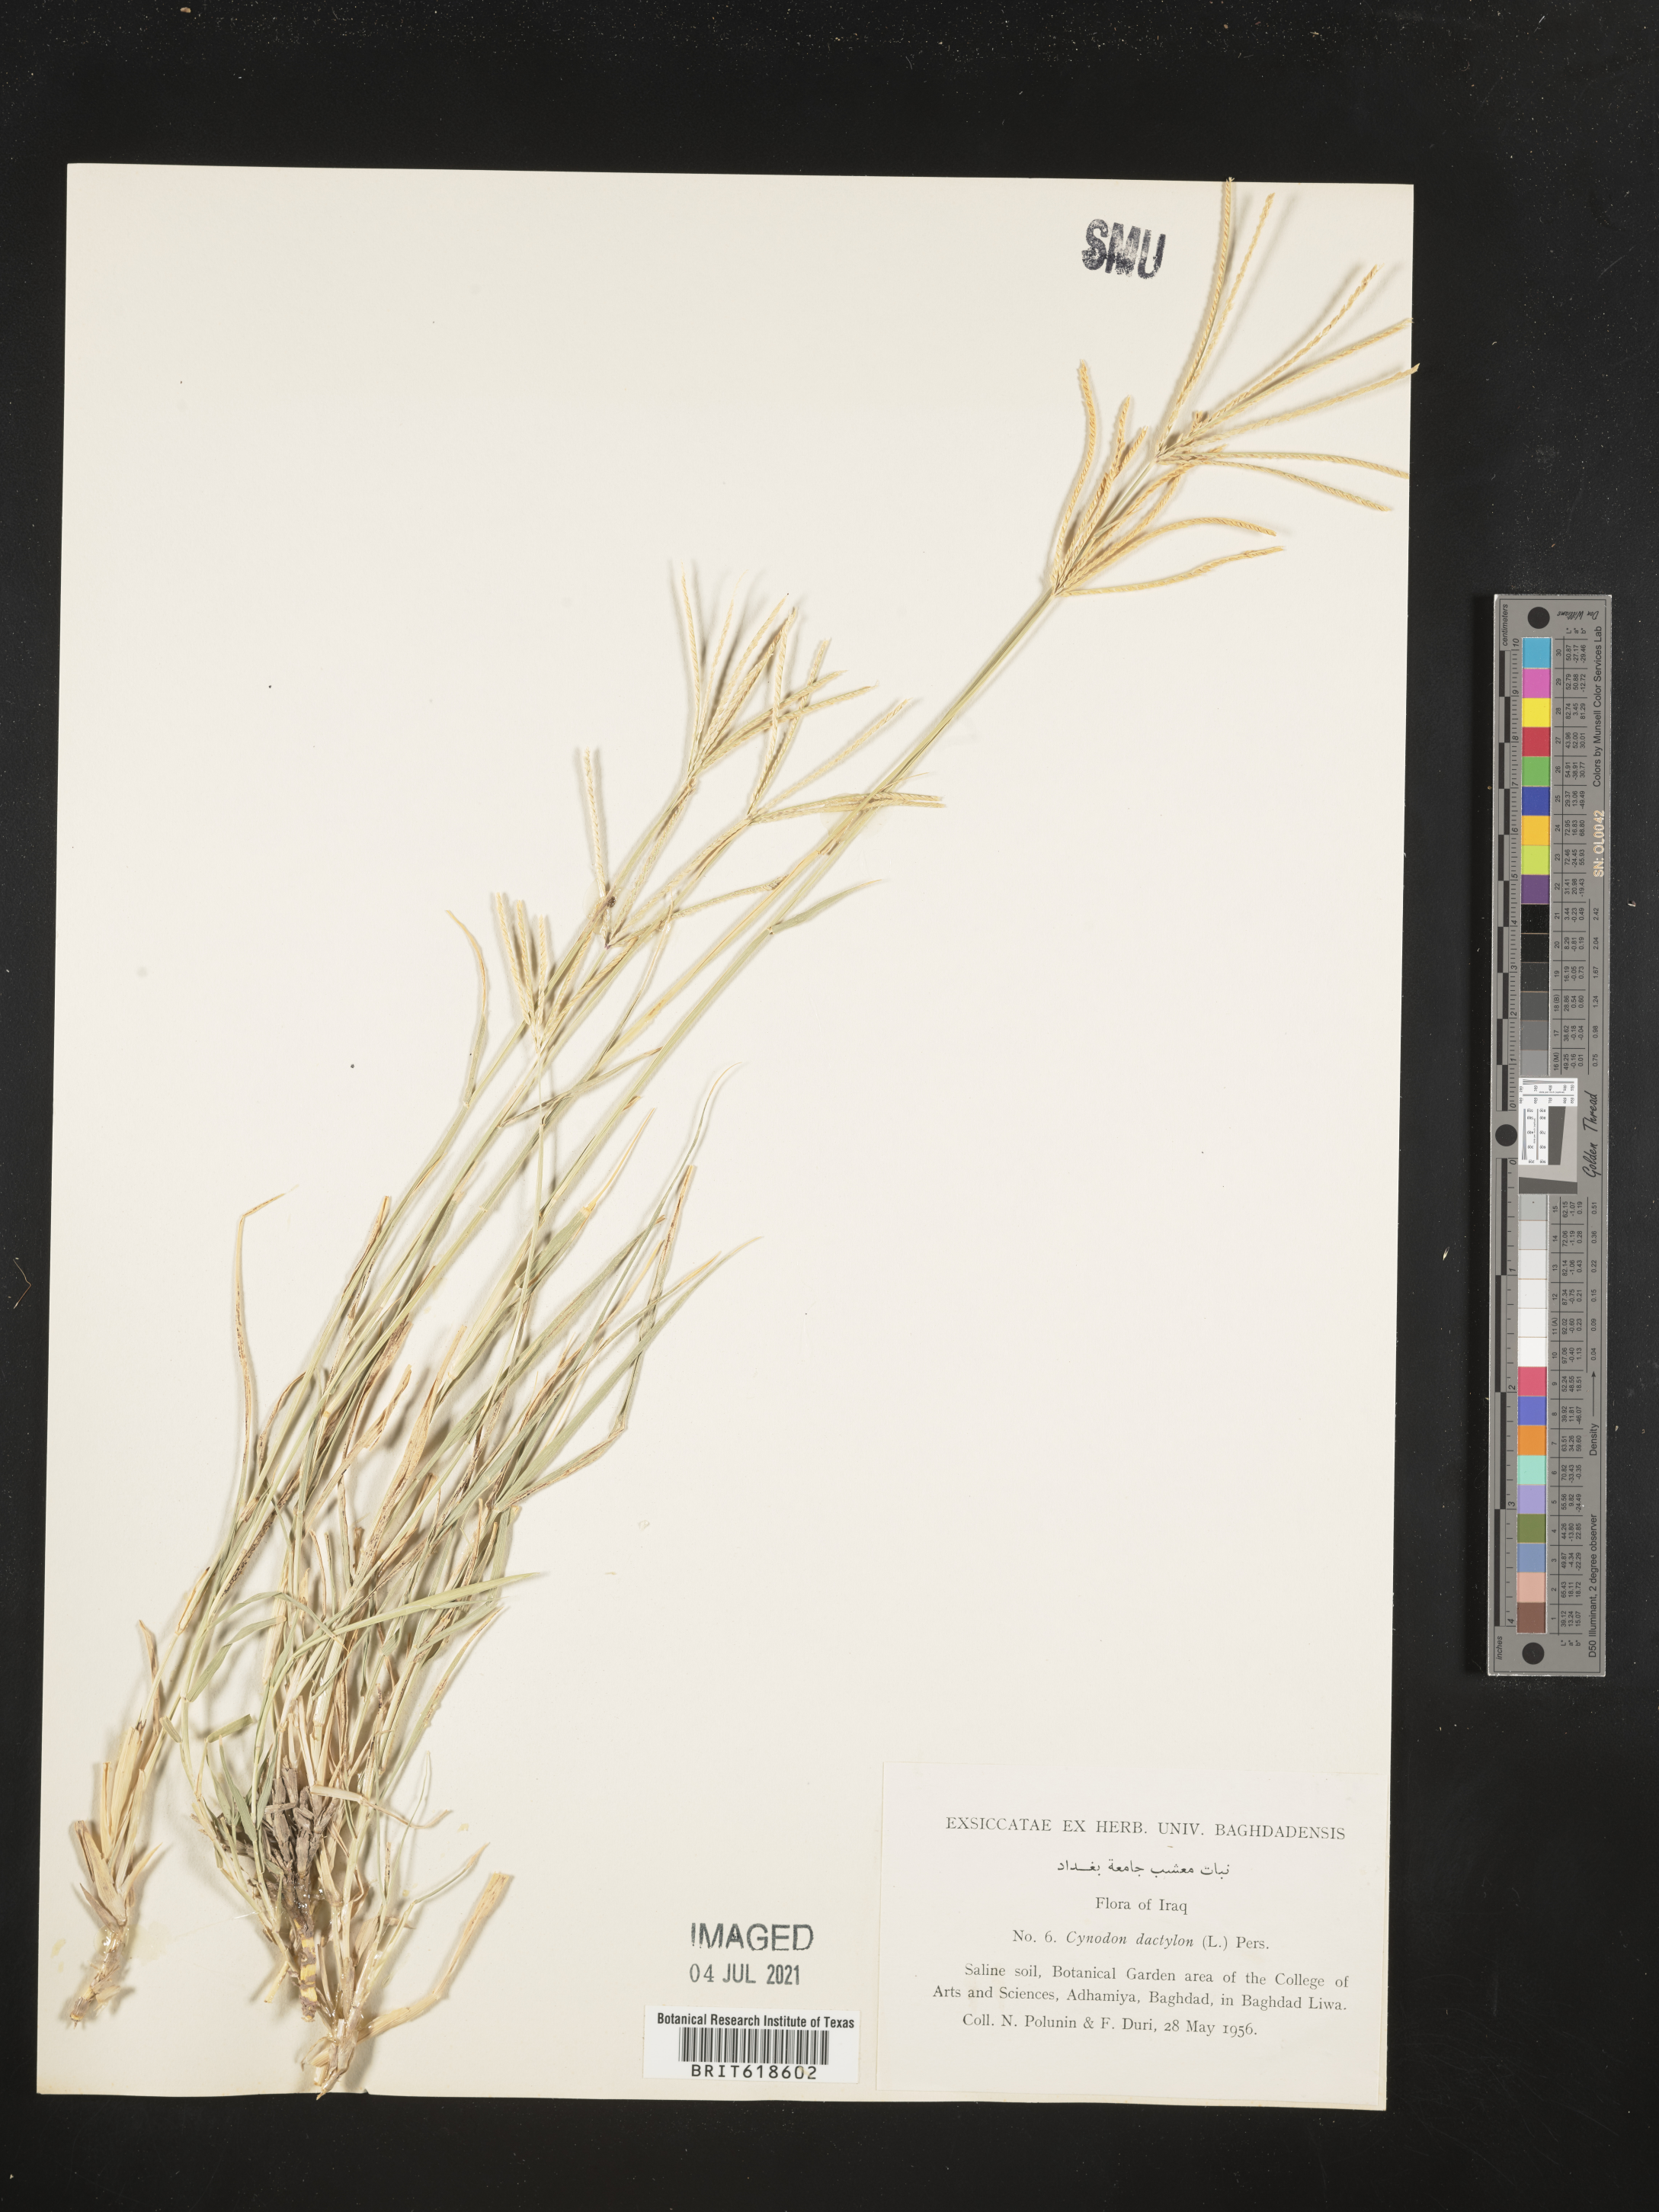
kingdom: Plantae
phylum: Tracheophyta
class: Liliopsida
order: Poales
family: Poaceae
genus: Cynodon
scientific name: Cynodon dactylon
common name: Bermuda grass
